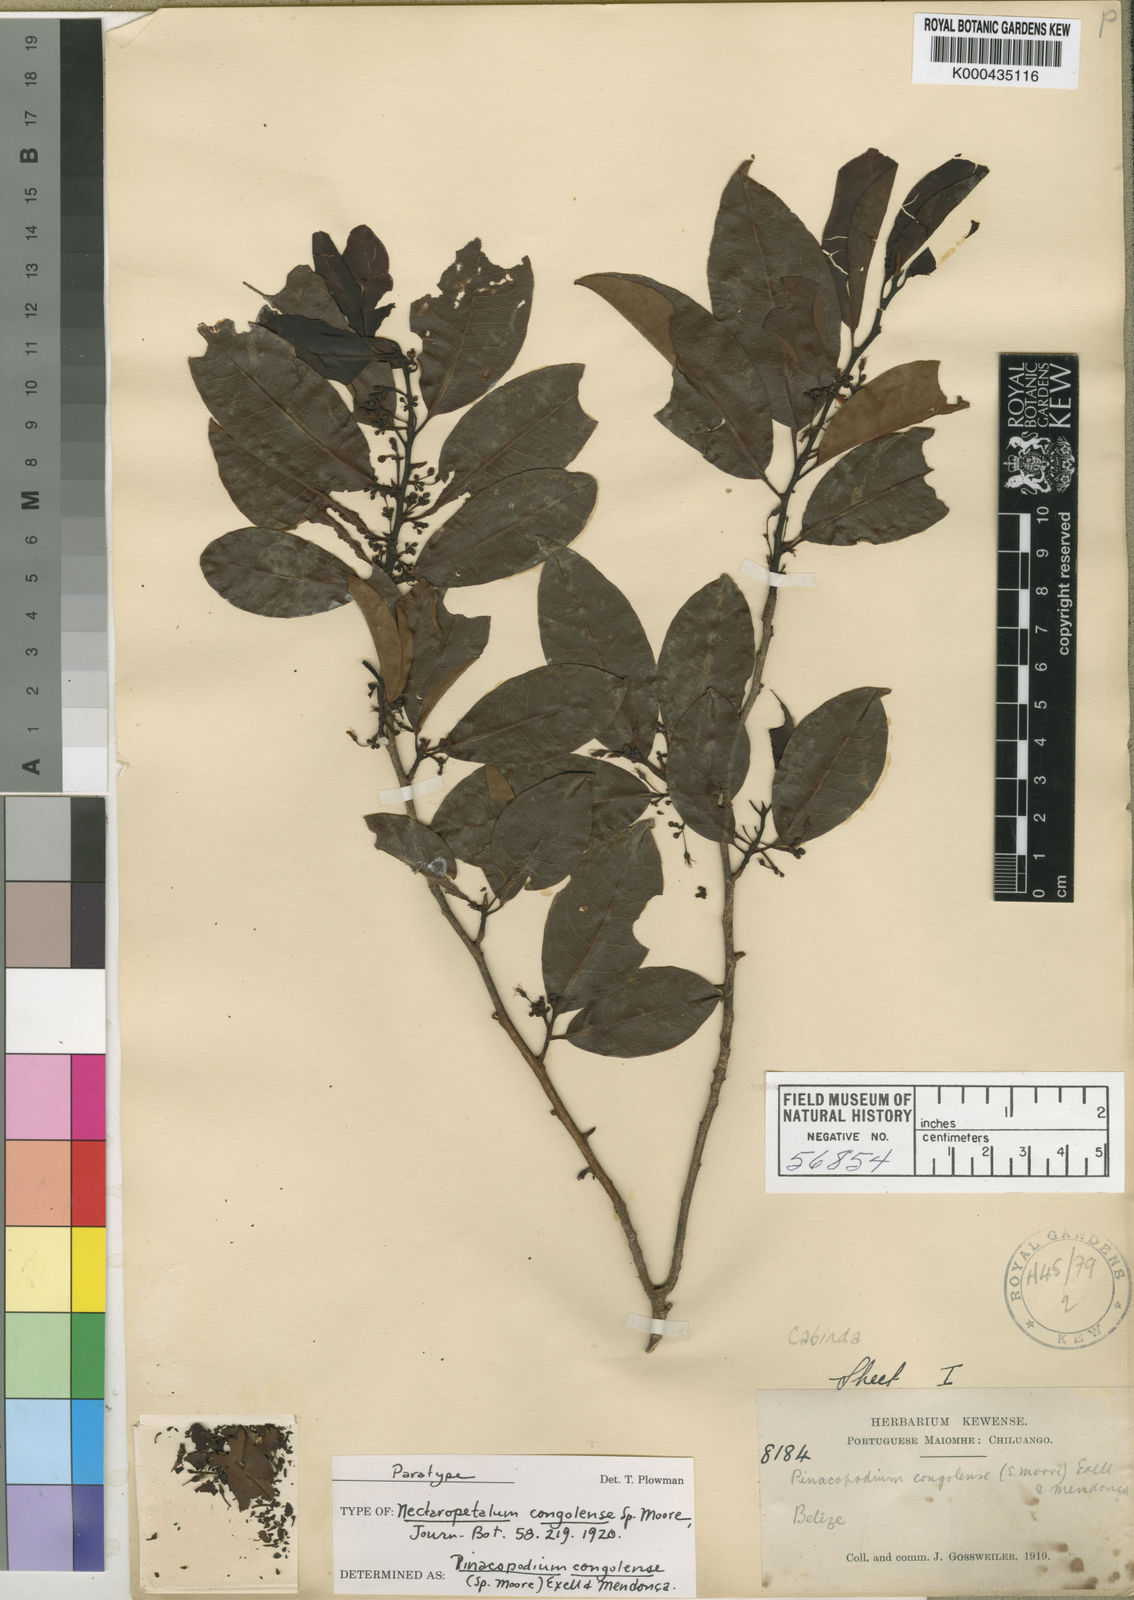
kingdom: Plantae
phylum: Tracheophyta
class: Magnoliopsida
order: Malpighiales
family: Erythroxylaceae
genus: Pinacopodium
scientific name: Pinacopodium congolense
